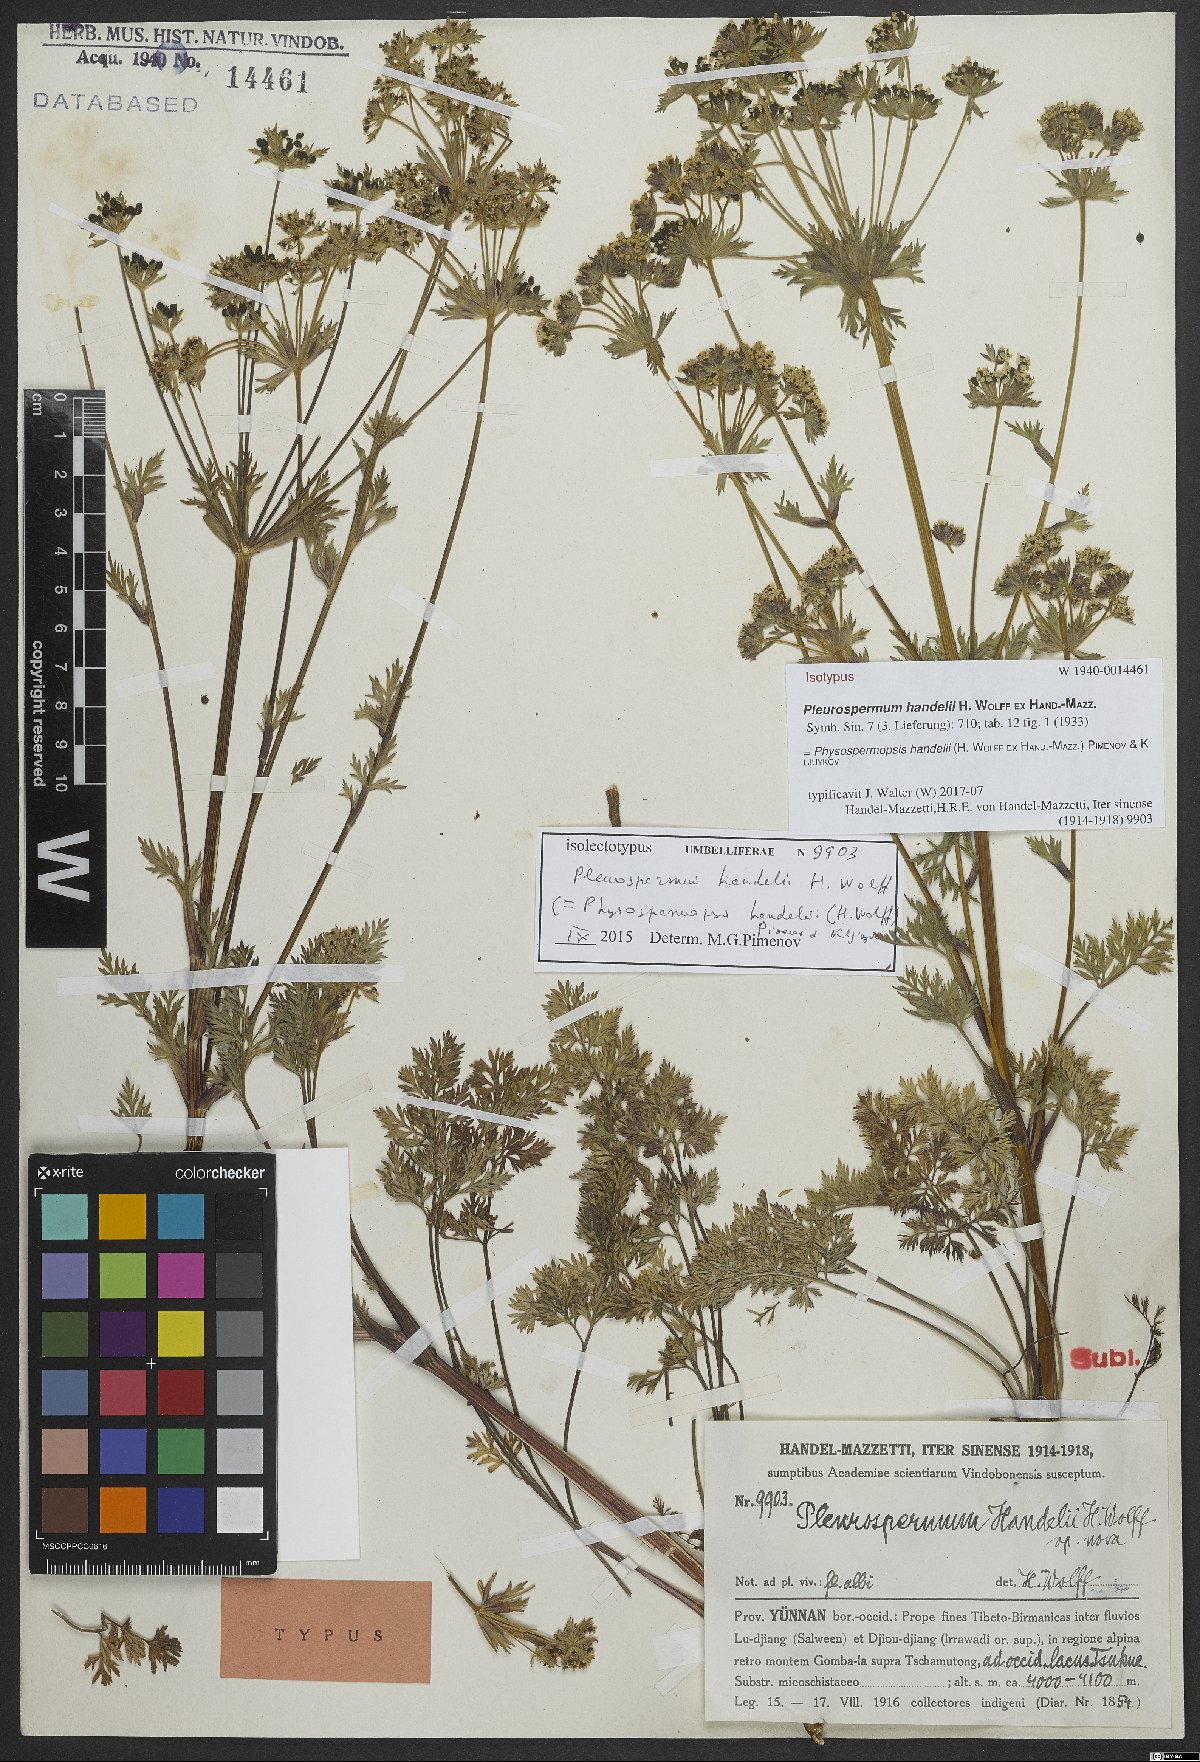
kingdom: Plantae
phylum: Tracheophyta
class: Magnoliopsida
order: Apiales
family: Apiaceae
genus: Physospermopsis
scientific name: Physospermopsis handelii
